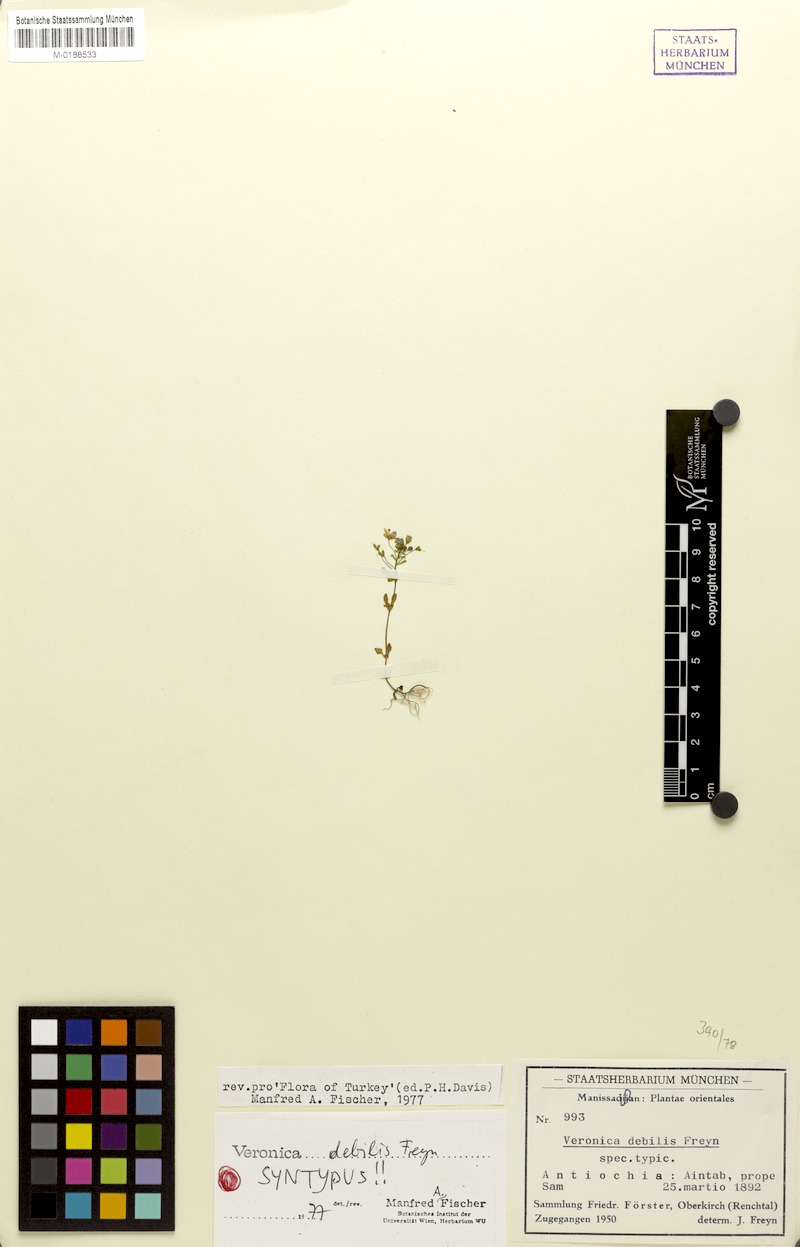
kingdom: Plantae
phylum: Tracheophyta
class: Magnoliopsida
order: Lamiales
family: Plantaginaceae
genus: Veronica
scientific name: Veronica debilis
